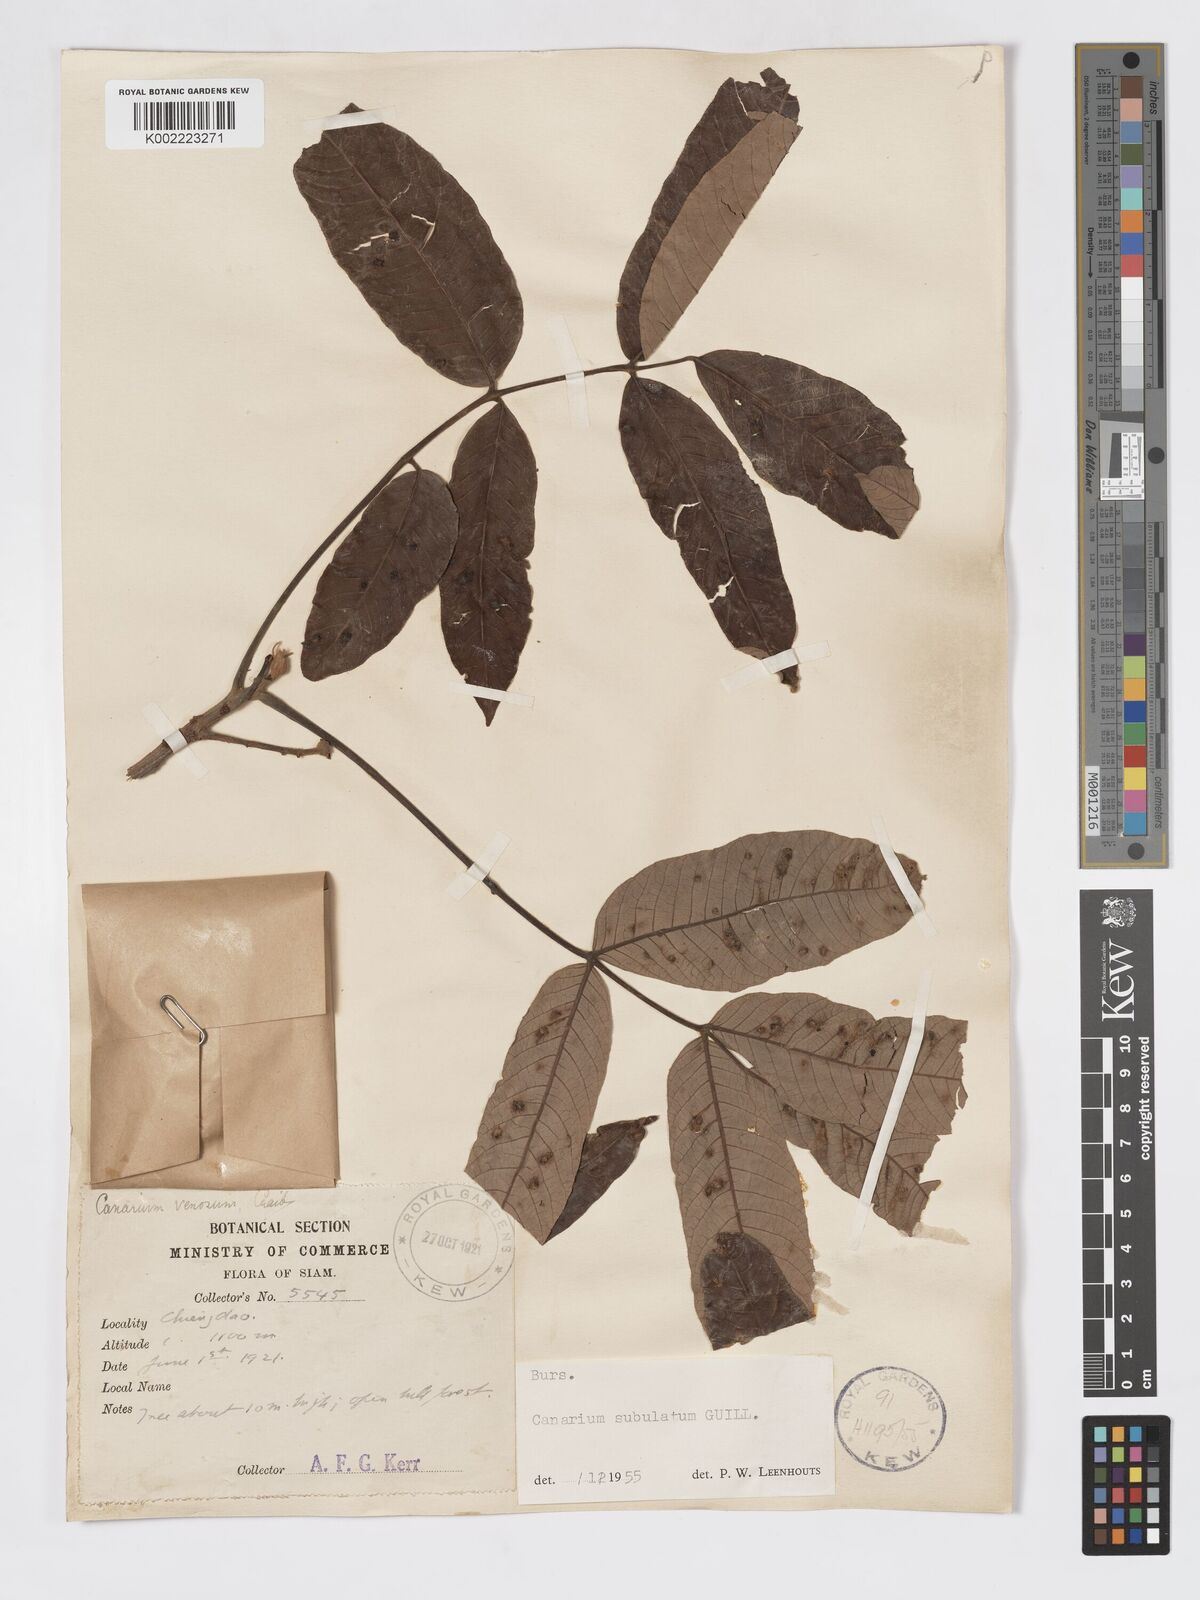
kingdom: Plantae
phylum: Tracheophyta
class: Magnoliopsida
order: Sapindales
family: Burseraceae
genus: Canarium
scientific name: Canarium subulatum
